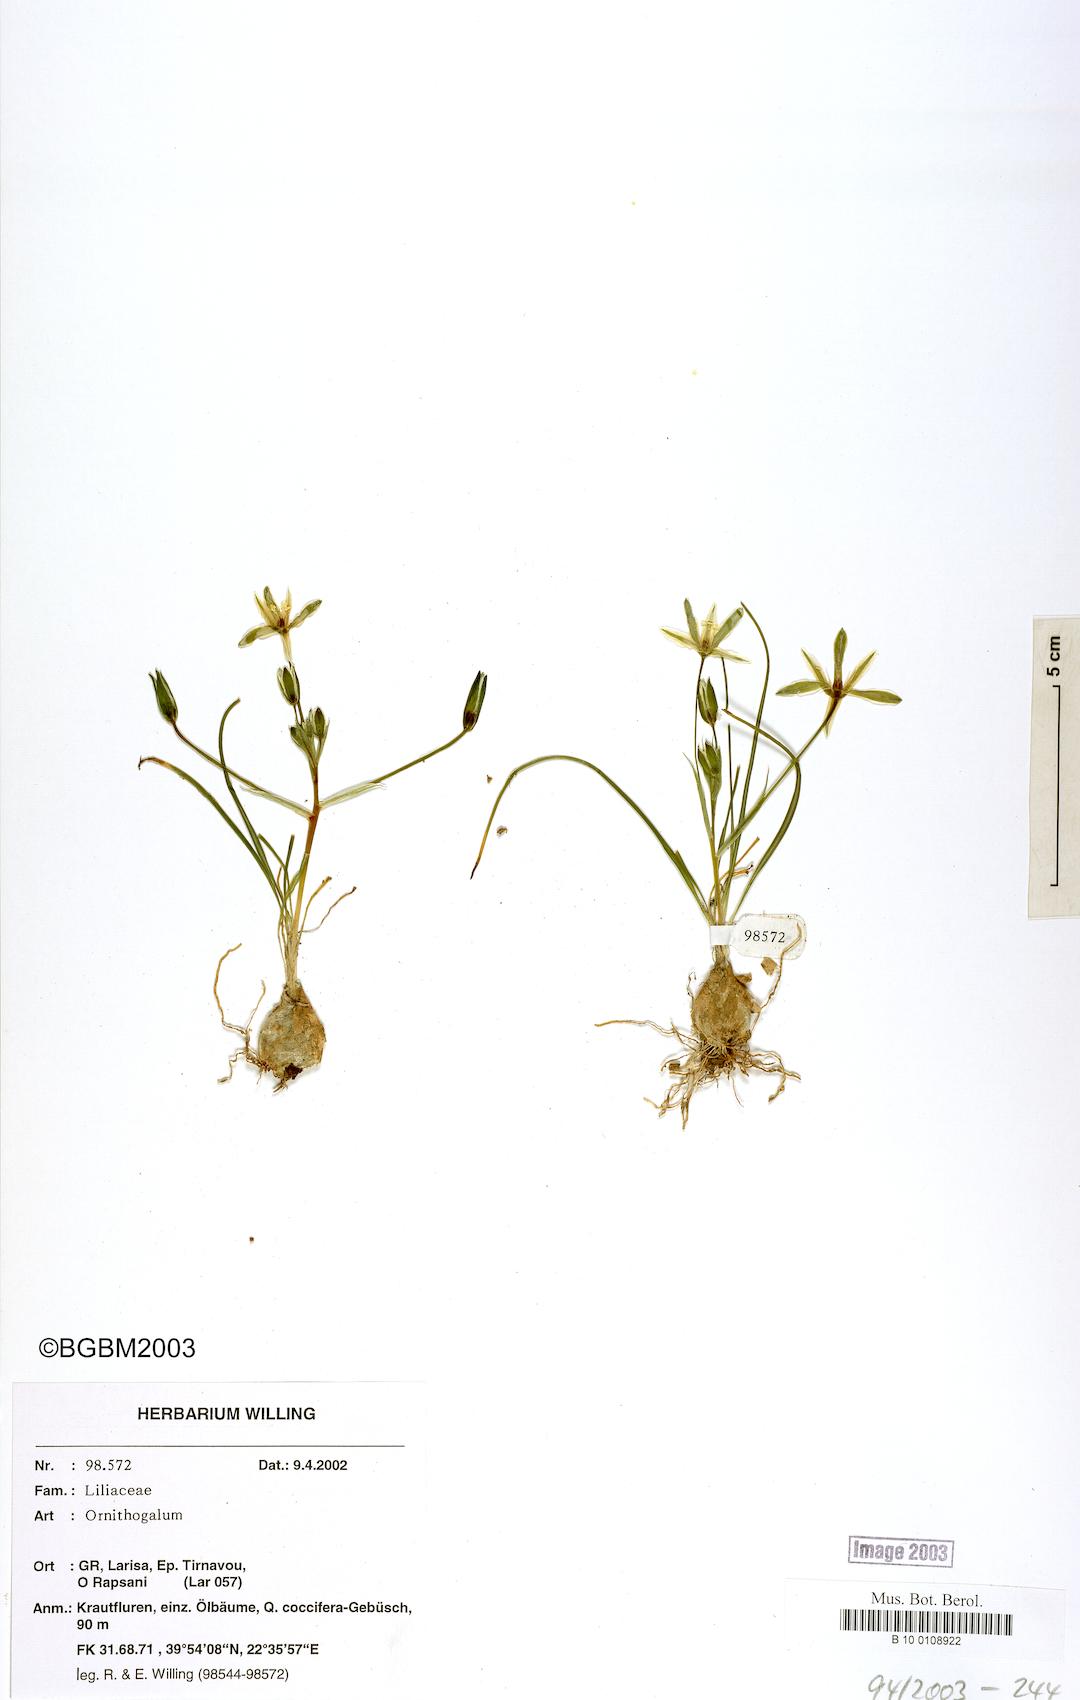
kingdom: Plantae
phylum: Tracheophyta
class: Liliopsida
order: Asparagales
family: Asparagaceae
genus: Ornithogalum
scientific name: Ornithogalum
